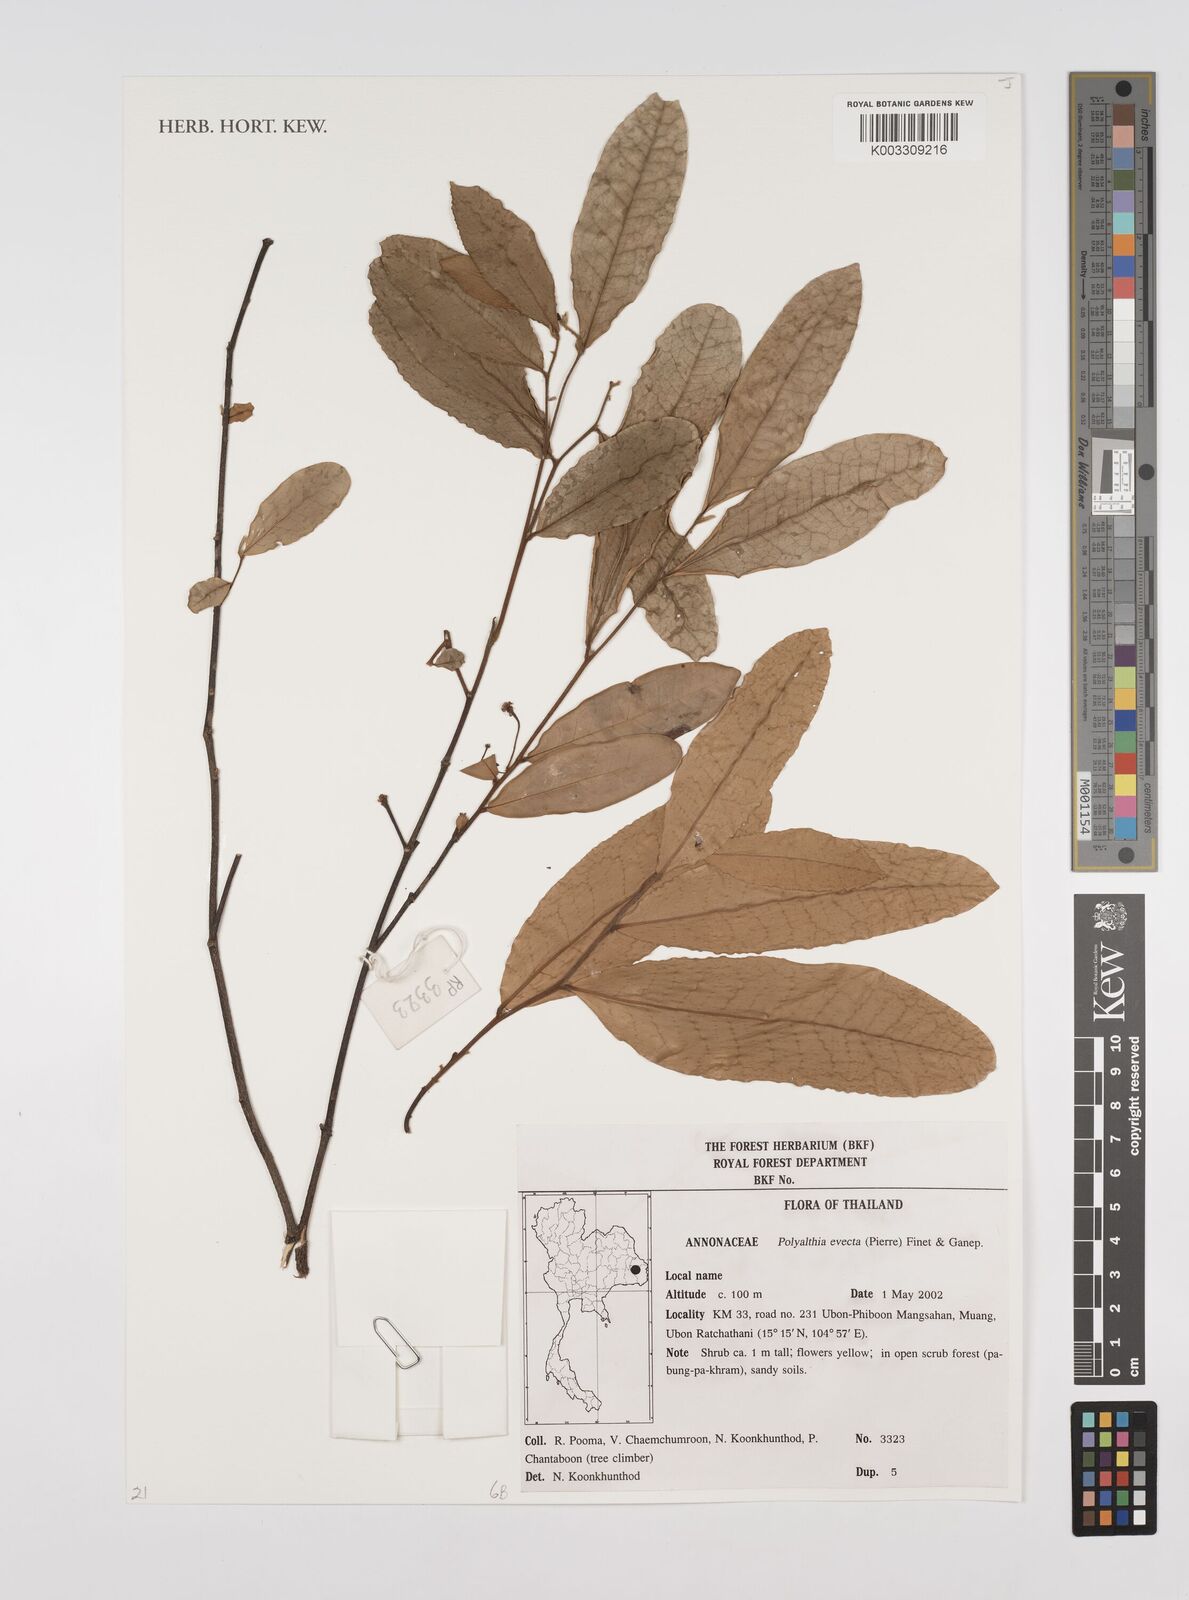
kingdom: Plantae
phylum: Tracheophyta
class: Magnoliopsida
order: Magnoliales
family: Annonaceae
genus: Polyalthia
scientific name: Polyalthia evecta
